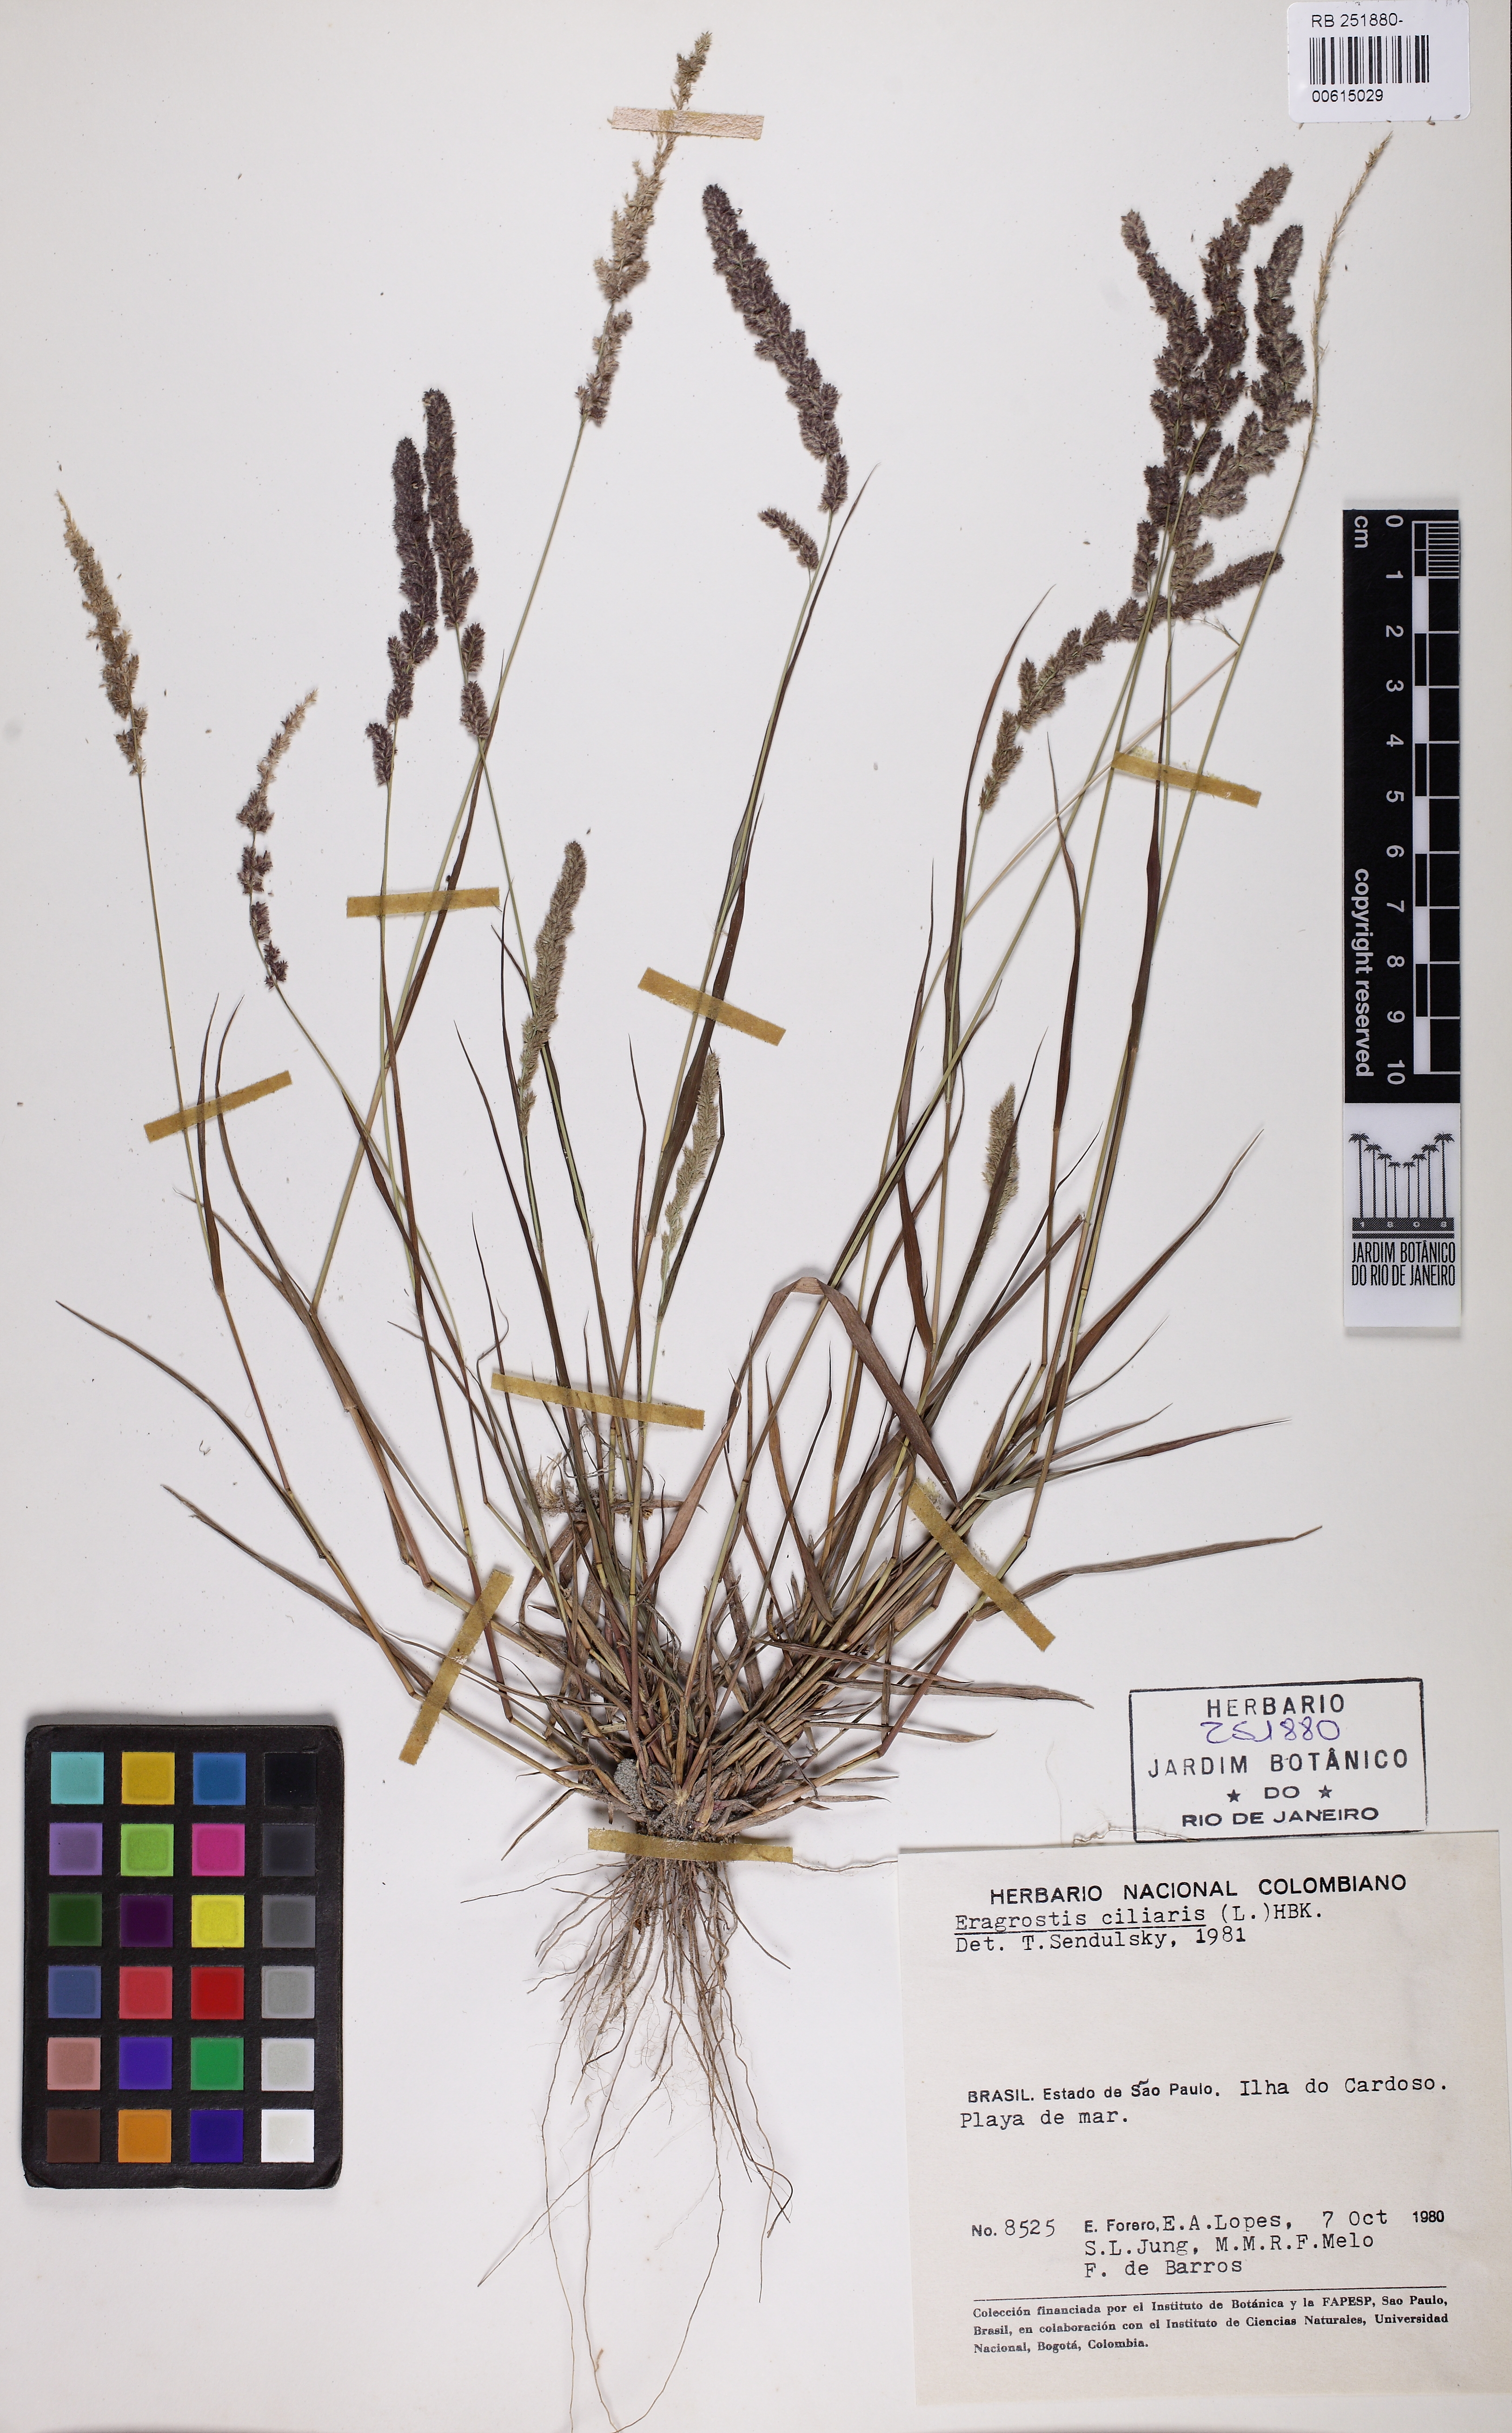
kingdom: Plantae
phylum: Tracheophyta
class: Liliopsida
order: Poales
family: Poaceae
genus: Eragrostis
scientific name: Eragrostis ciliaris
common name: Gophertail lovegrass
